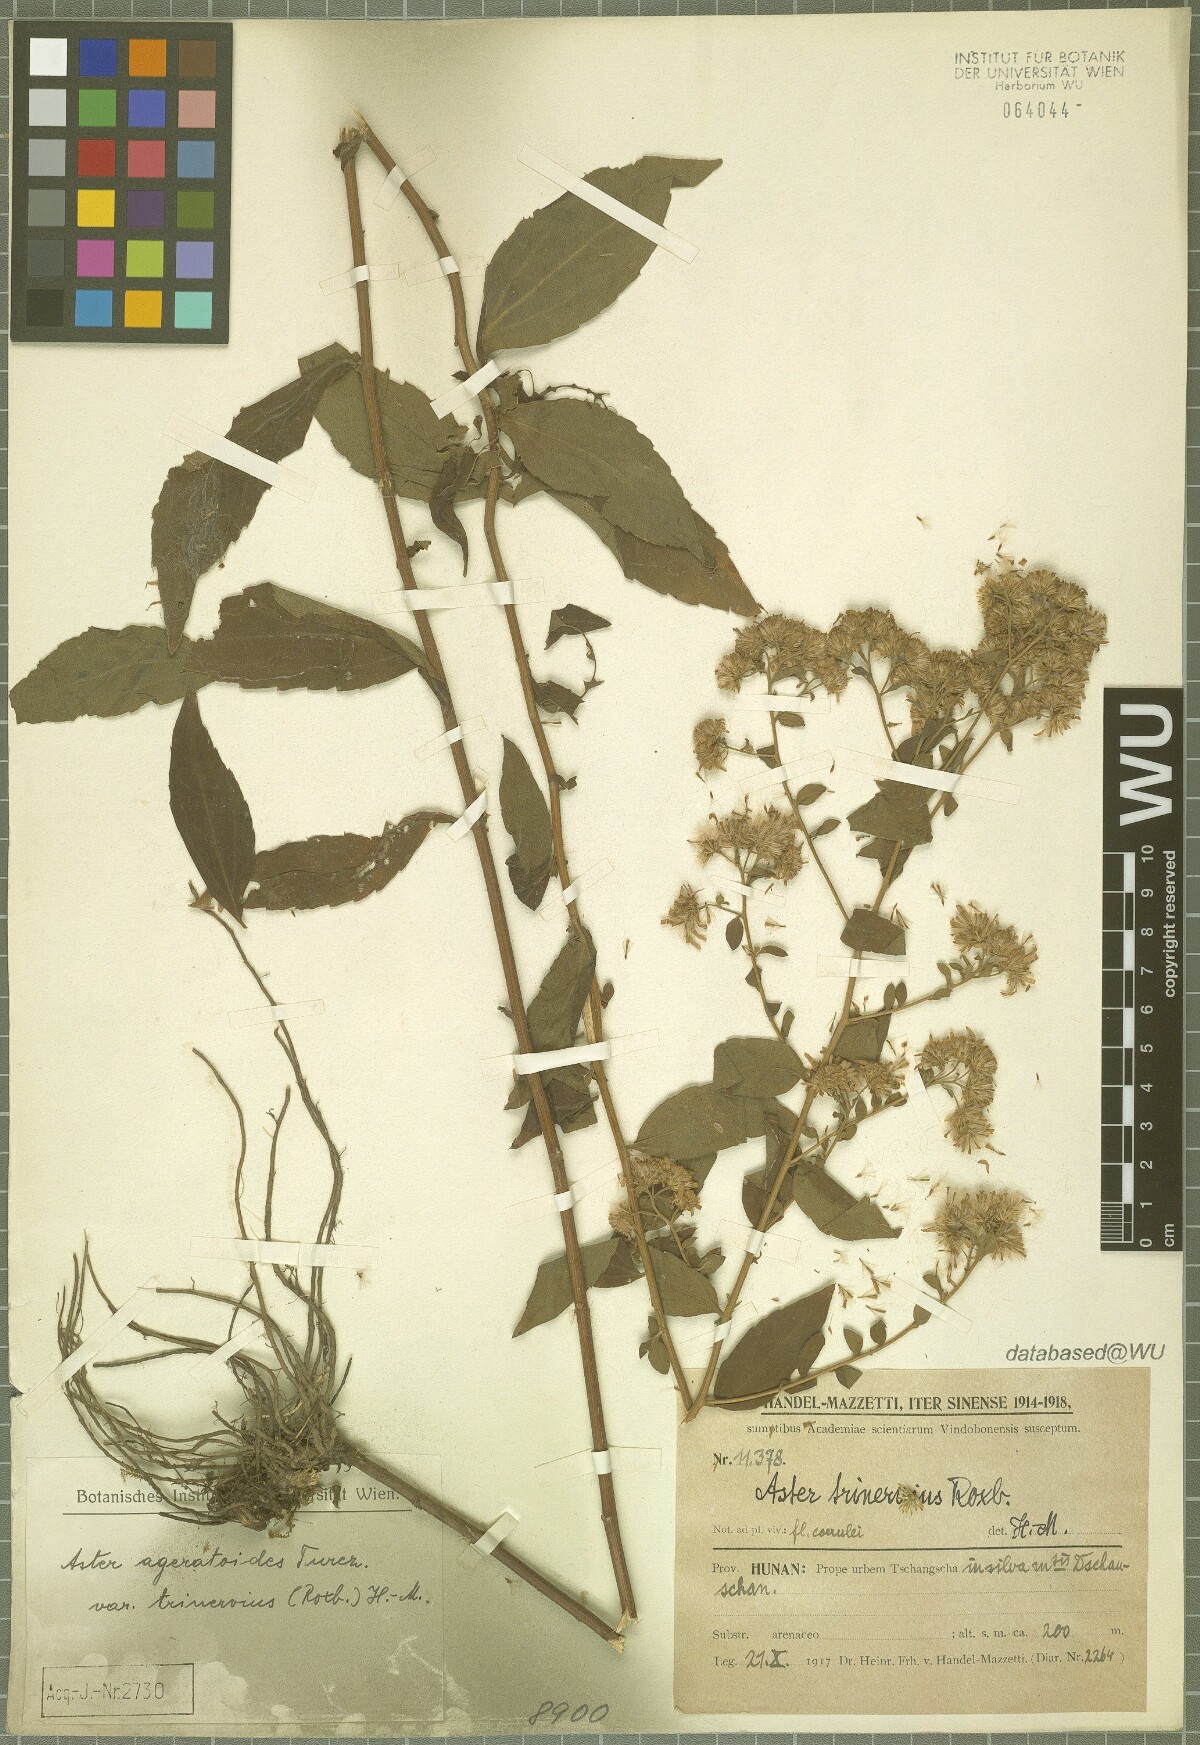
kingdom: Plantae
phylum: Tracheophyta
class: Magnoliopsida
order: Asterales
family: Asteraceae
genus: Aster
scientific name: Aster ageratoides
